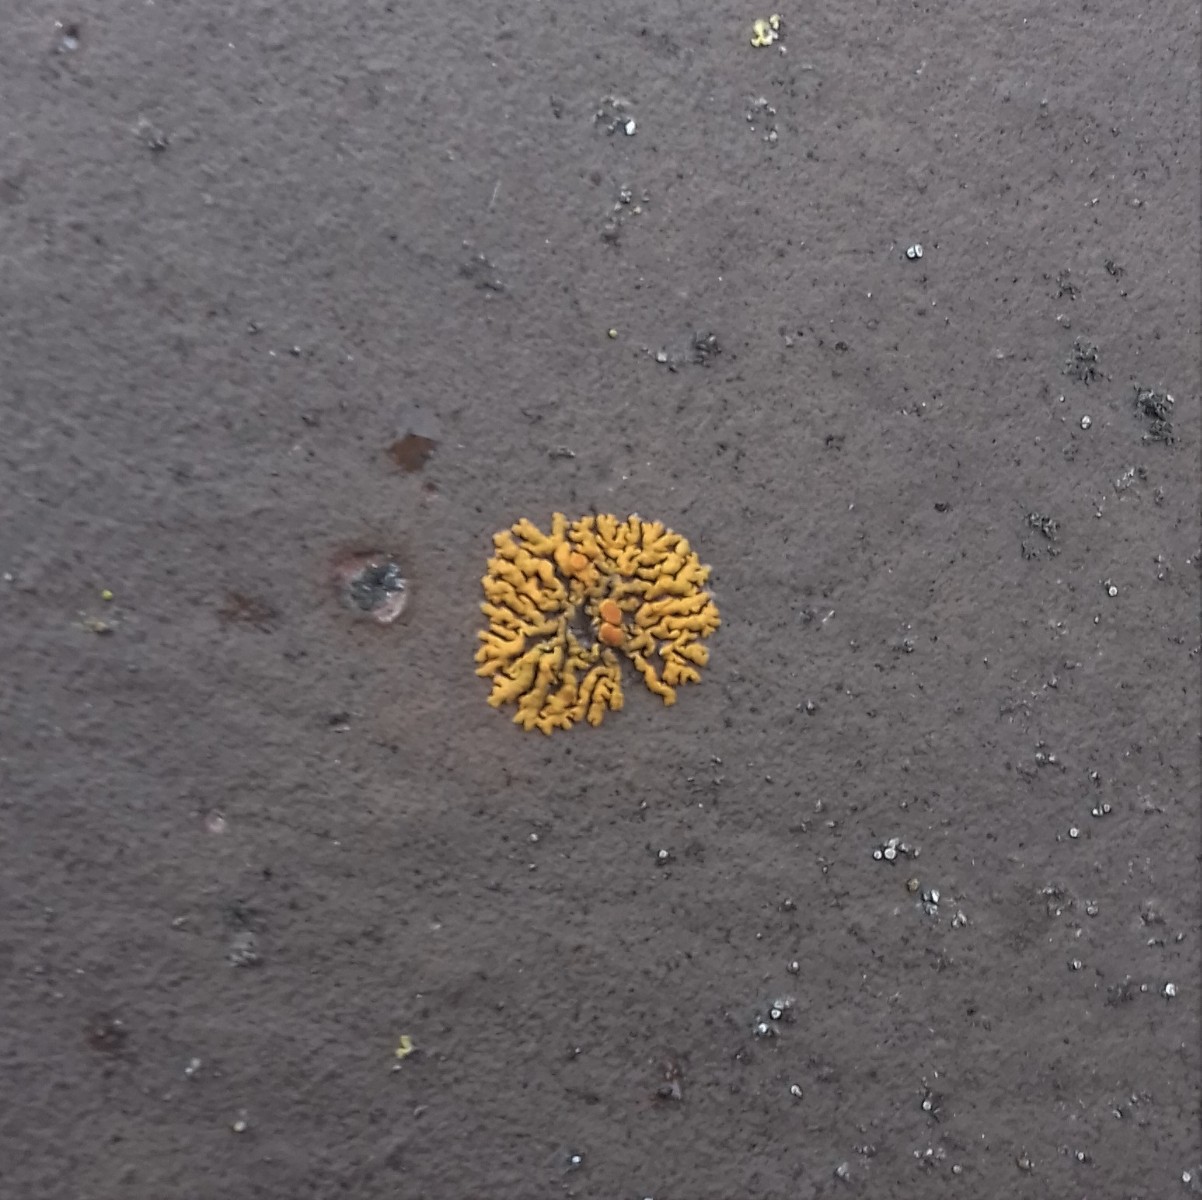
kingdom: Fungi
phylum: Ascomycota
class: Lecanoromycetes
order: Teloschistales
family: Teloschistaceae
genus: Xanthoria
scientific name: Xanthoria elegans
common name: fjeld-væggelav
